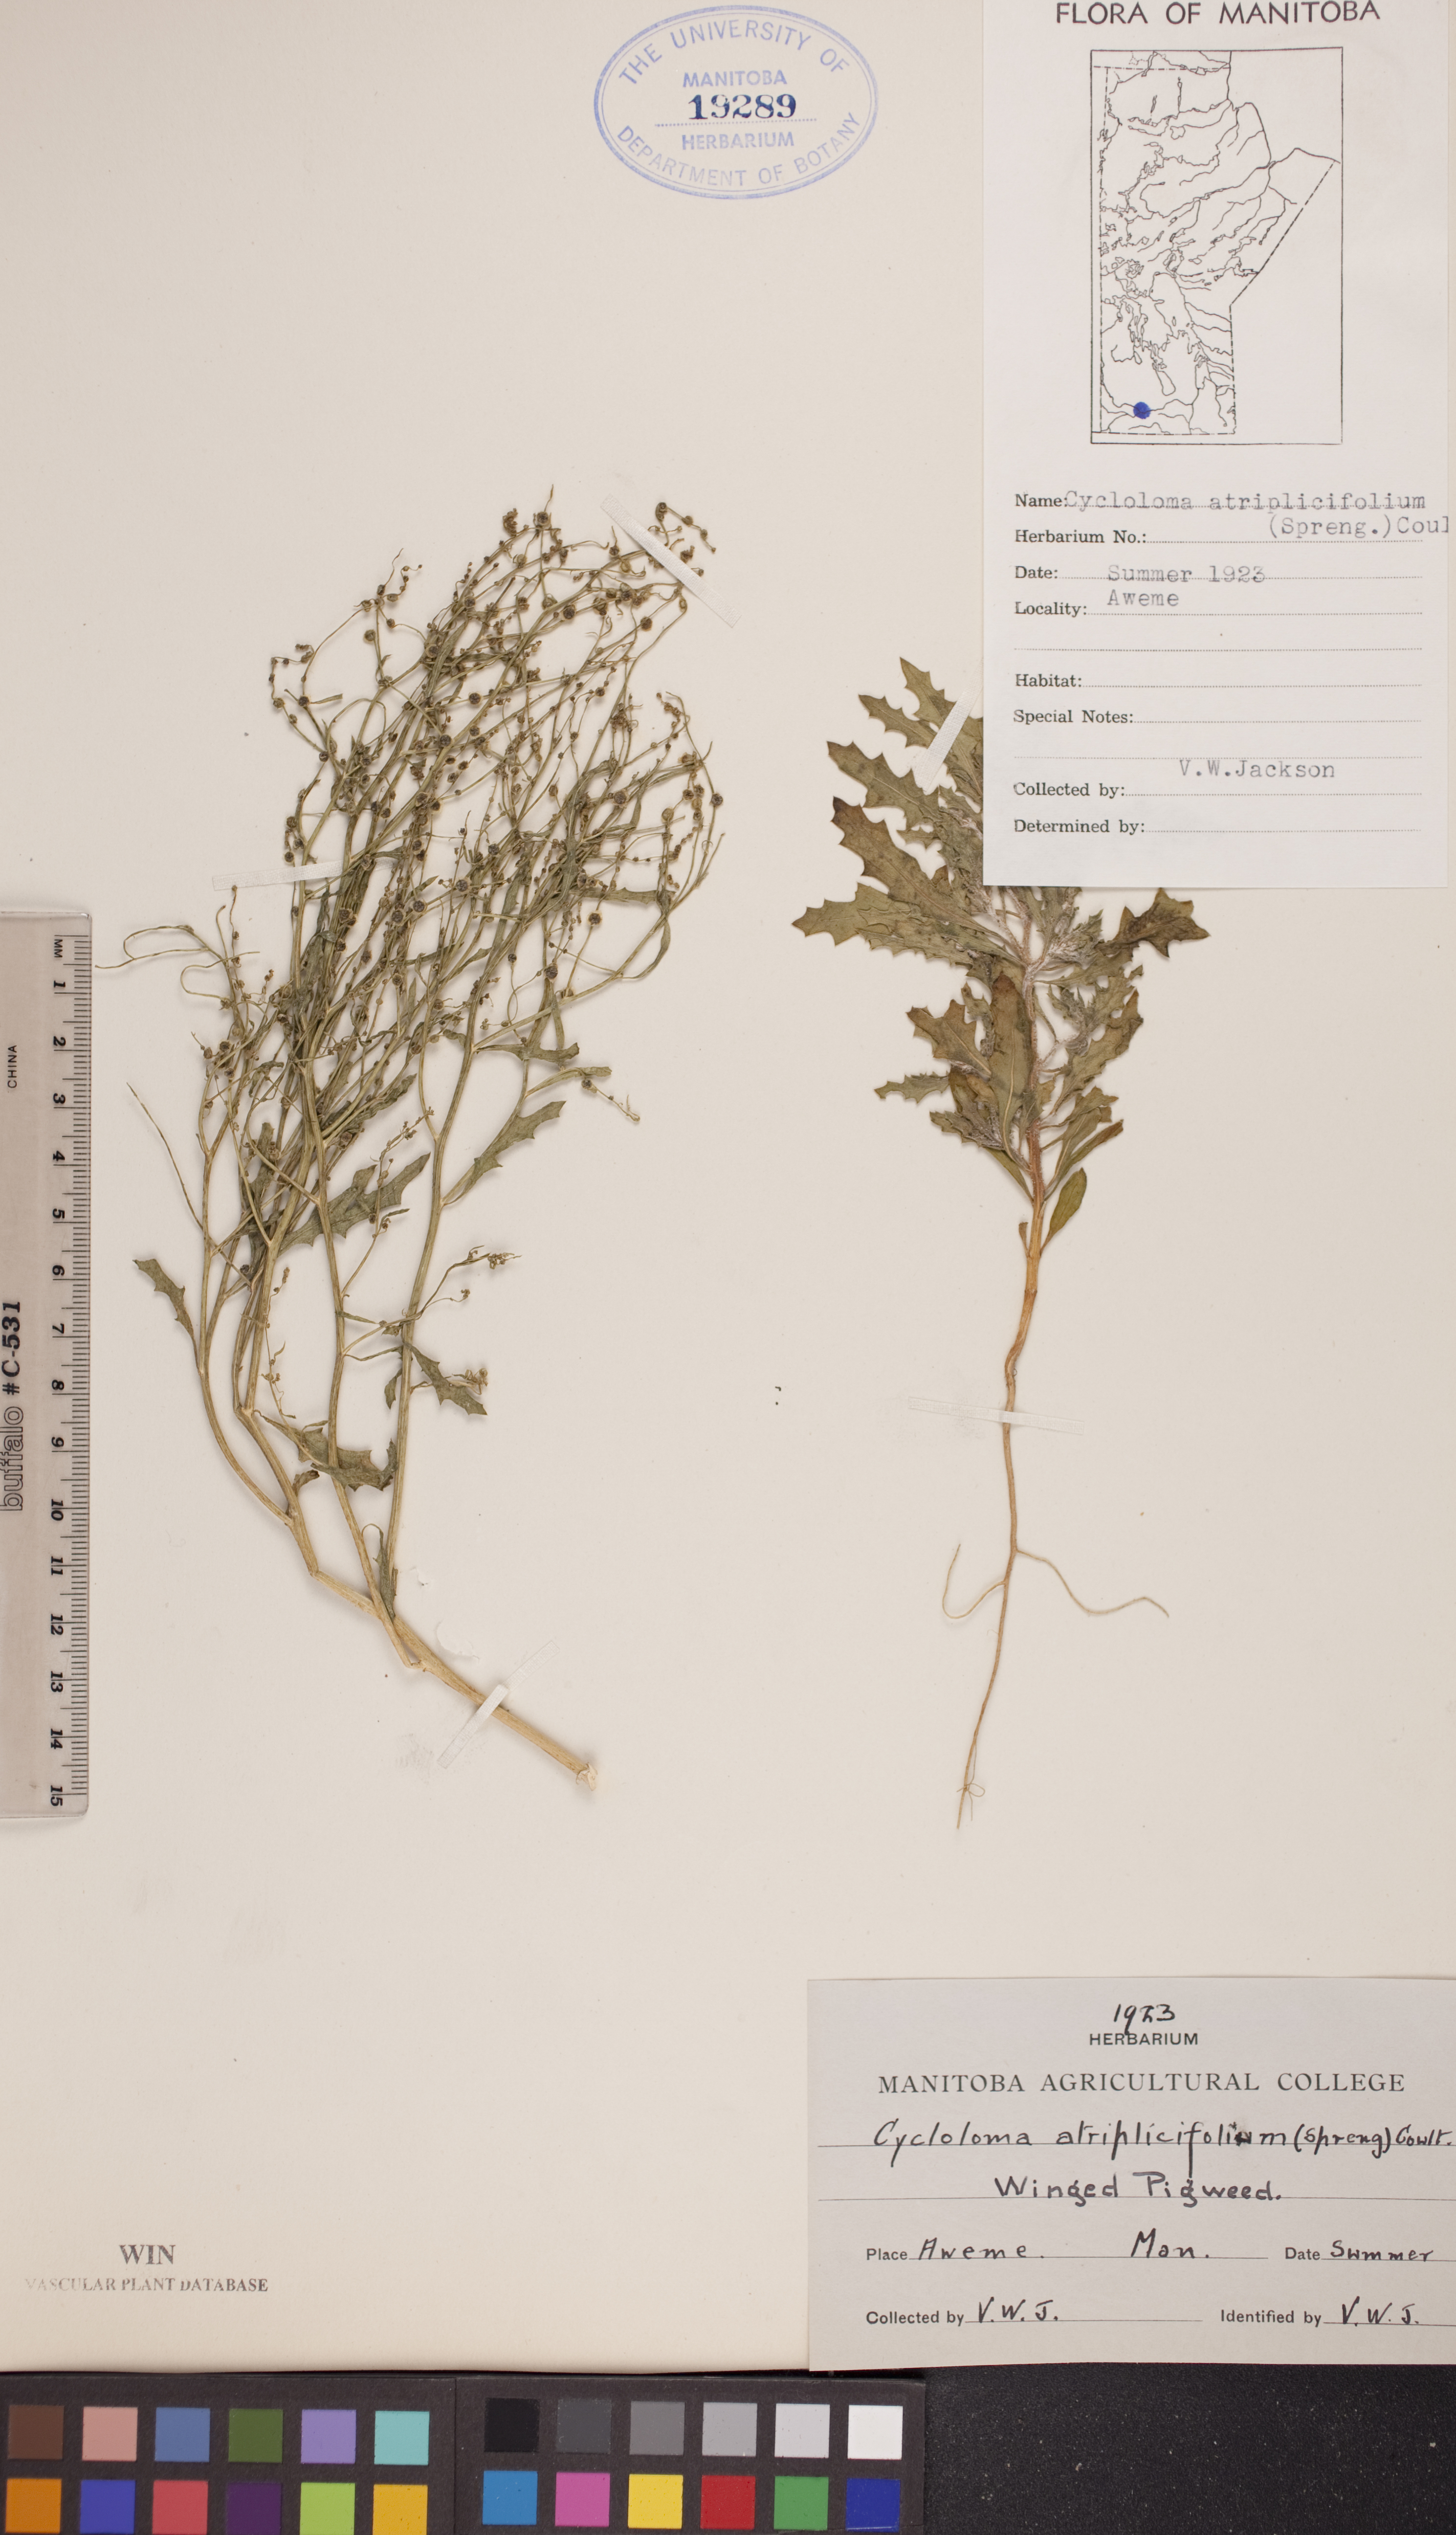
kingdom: Plantae
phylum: Tracheophyta
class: Magnoliopsida
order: Caryophyllales
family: Amaranthaceae
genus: Dysphania
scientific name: Dysphania atriplicifolia
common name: Plains tumbleweed
